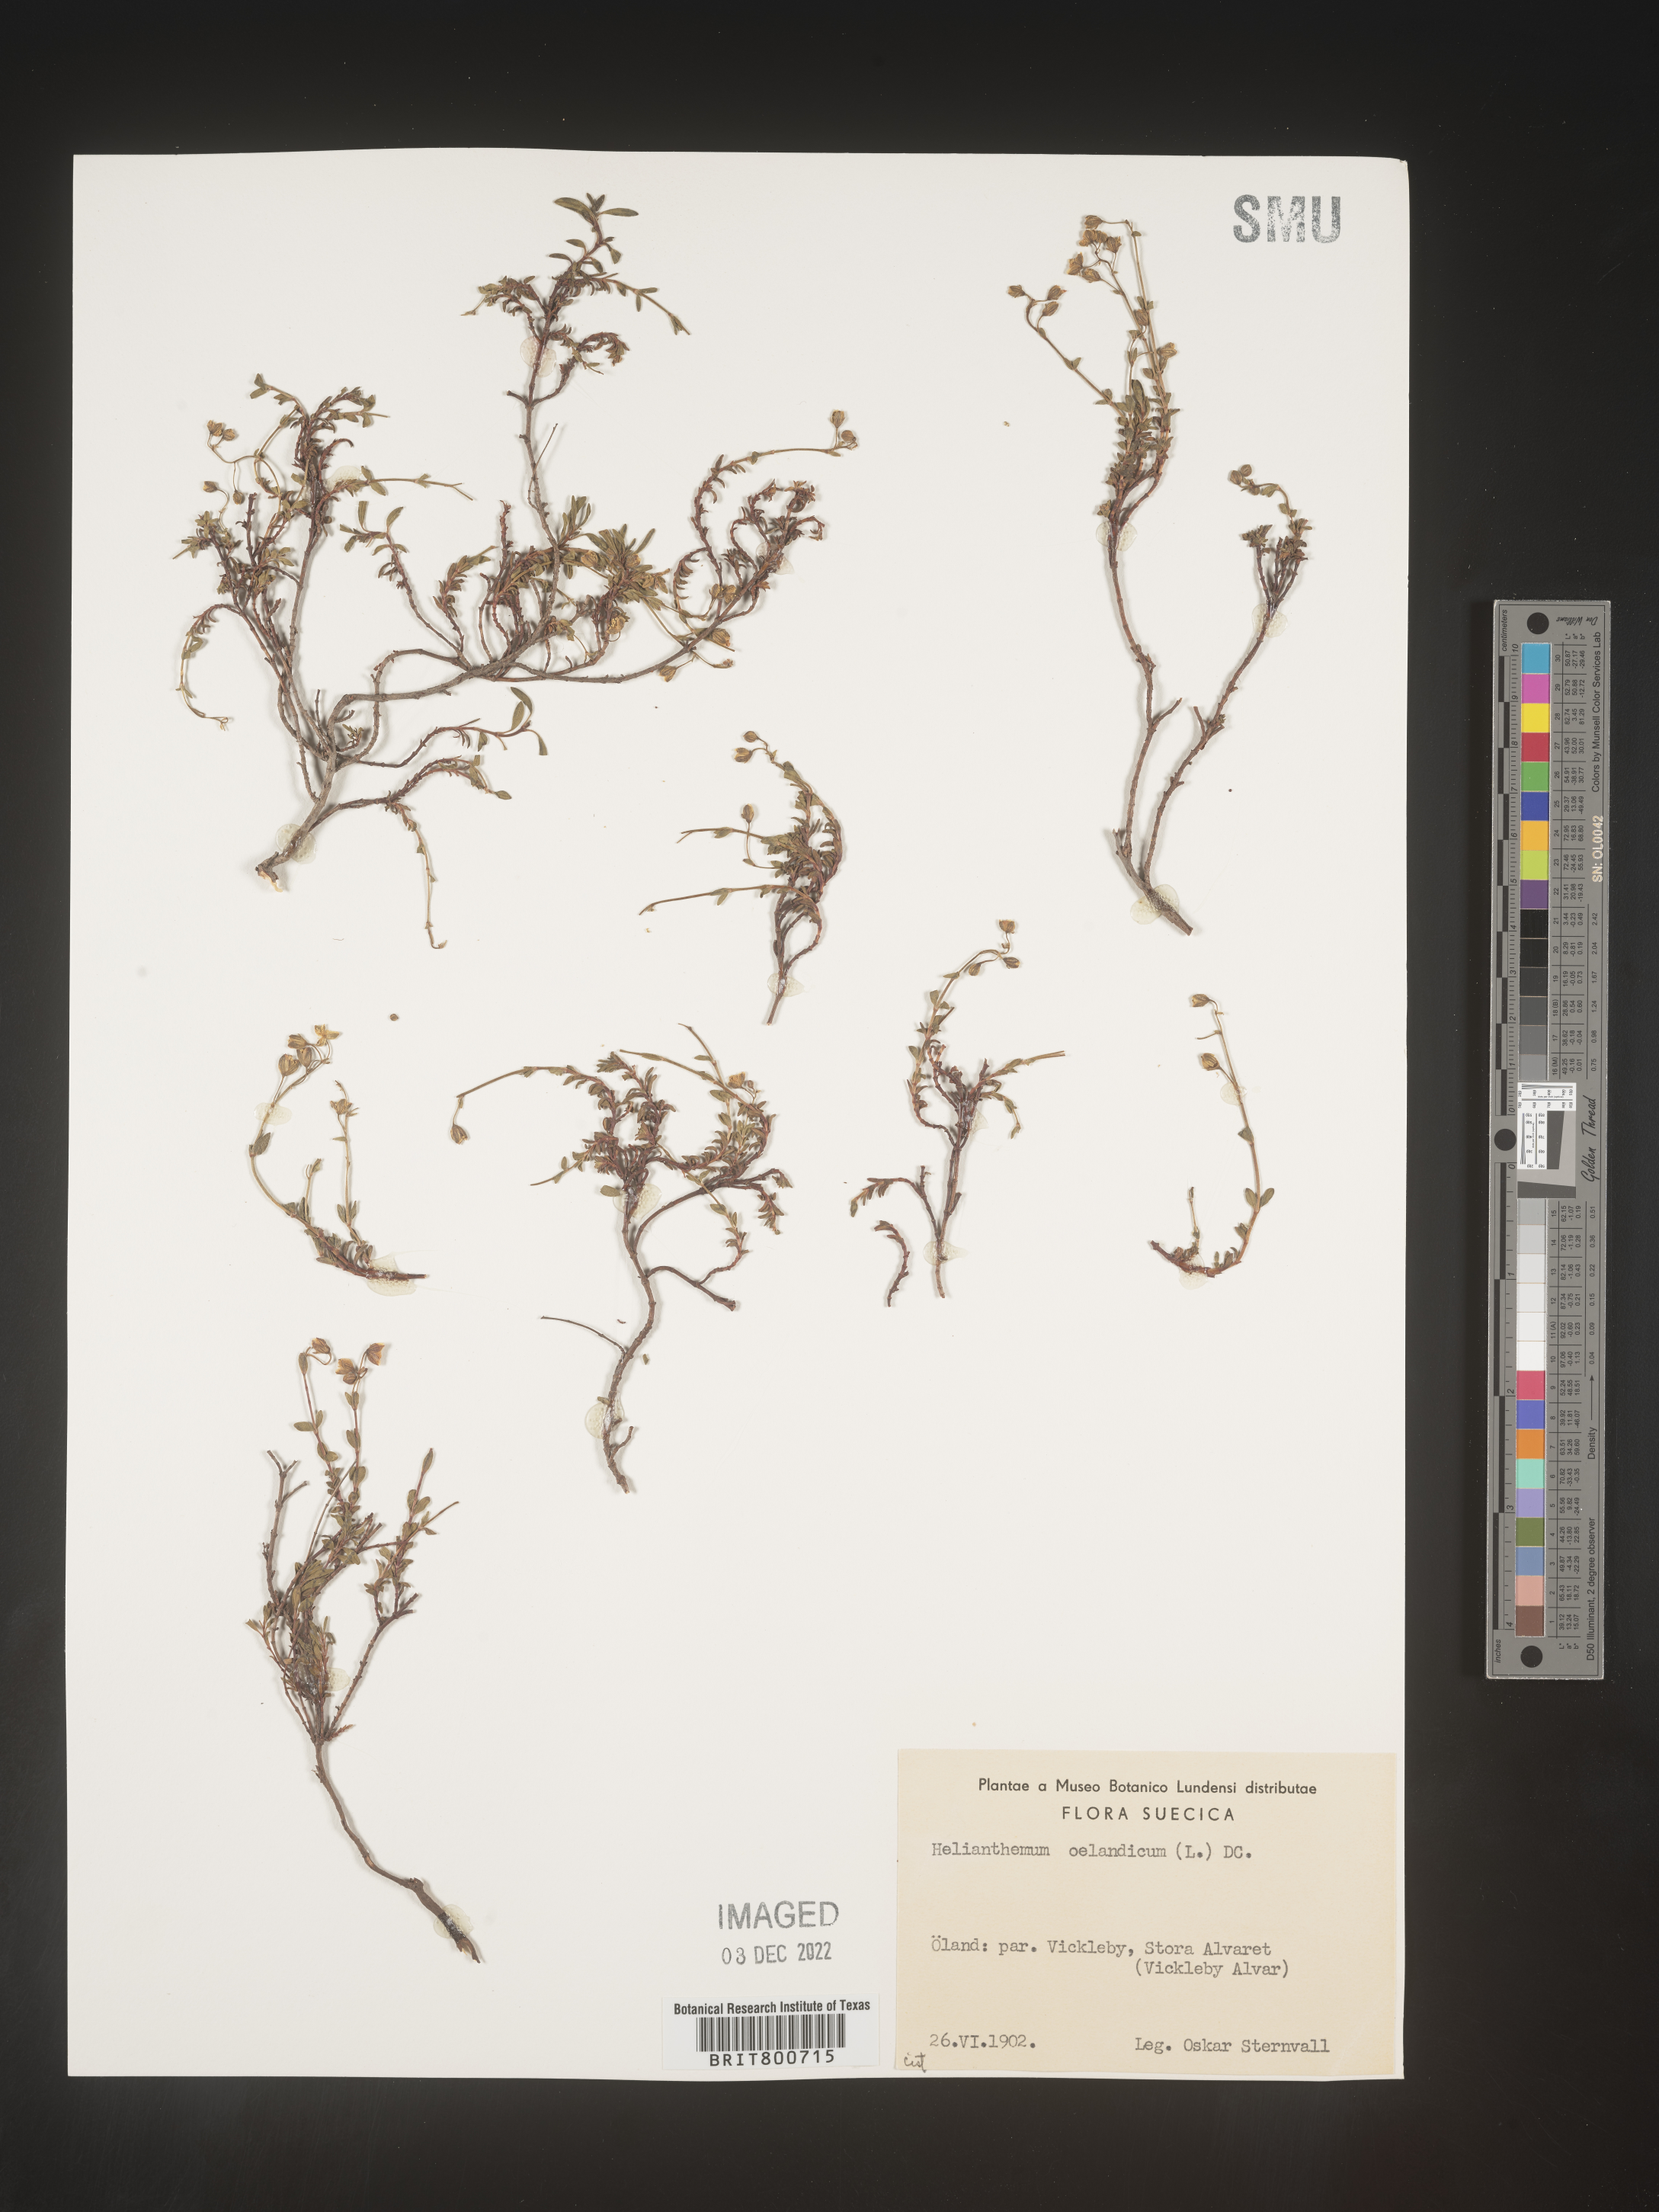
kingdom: Plantae
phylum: Tracheophyta
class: Magnoliopsida
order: Malvales
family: Cistaceae
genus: Helianthemum
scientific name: Helianthemum
